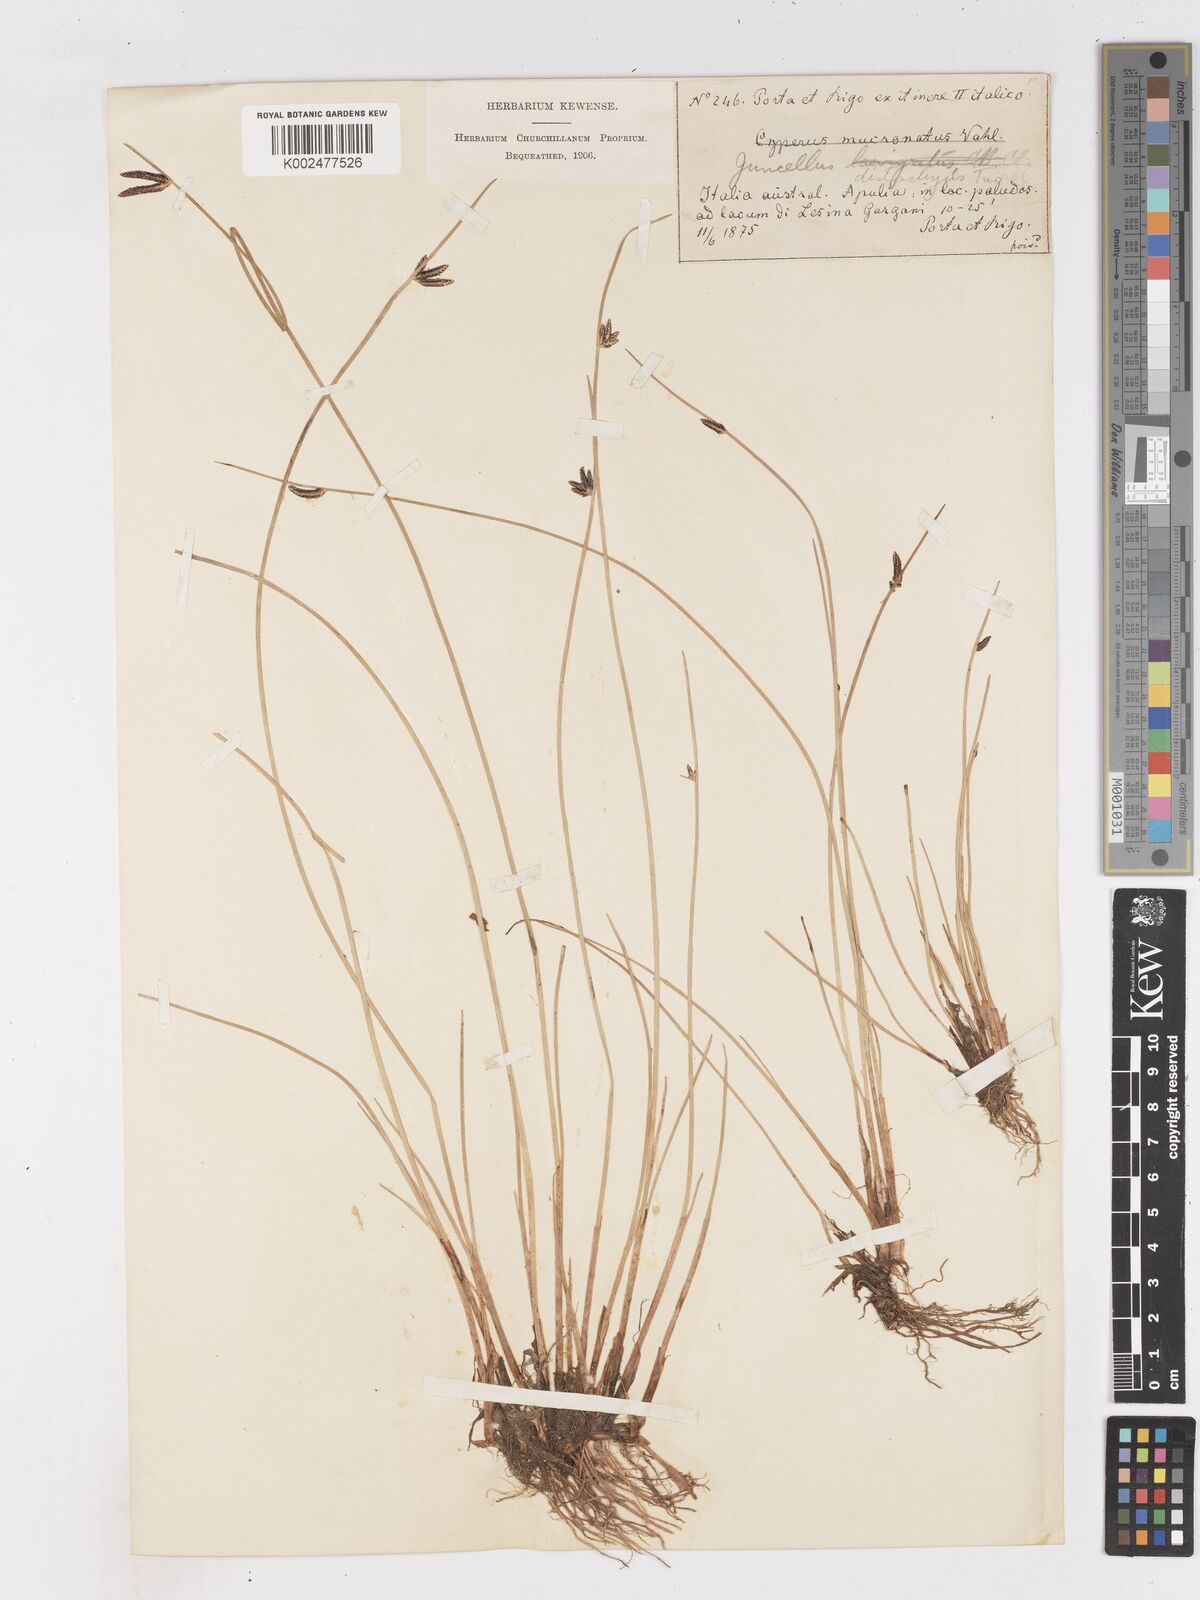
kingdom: Plantae
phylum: Tracheophyta
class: Liliopsida
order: Poales
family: Cyperaceae
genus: Cyperus
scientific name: Cyperus laevigatus
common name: Smooth flat sedge
